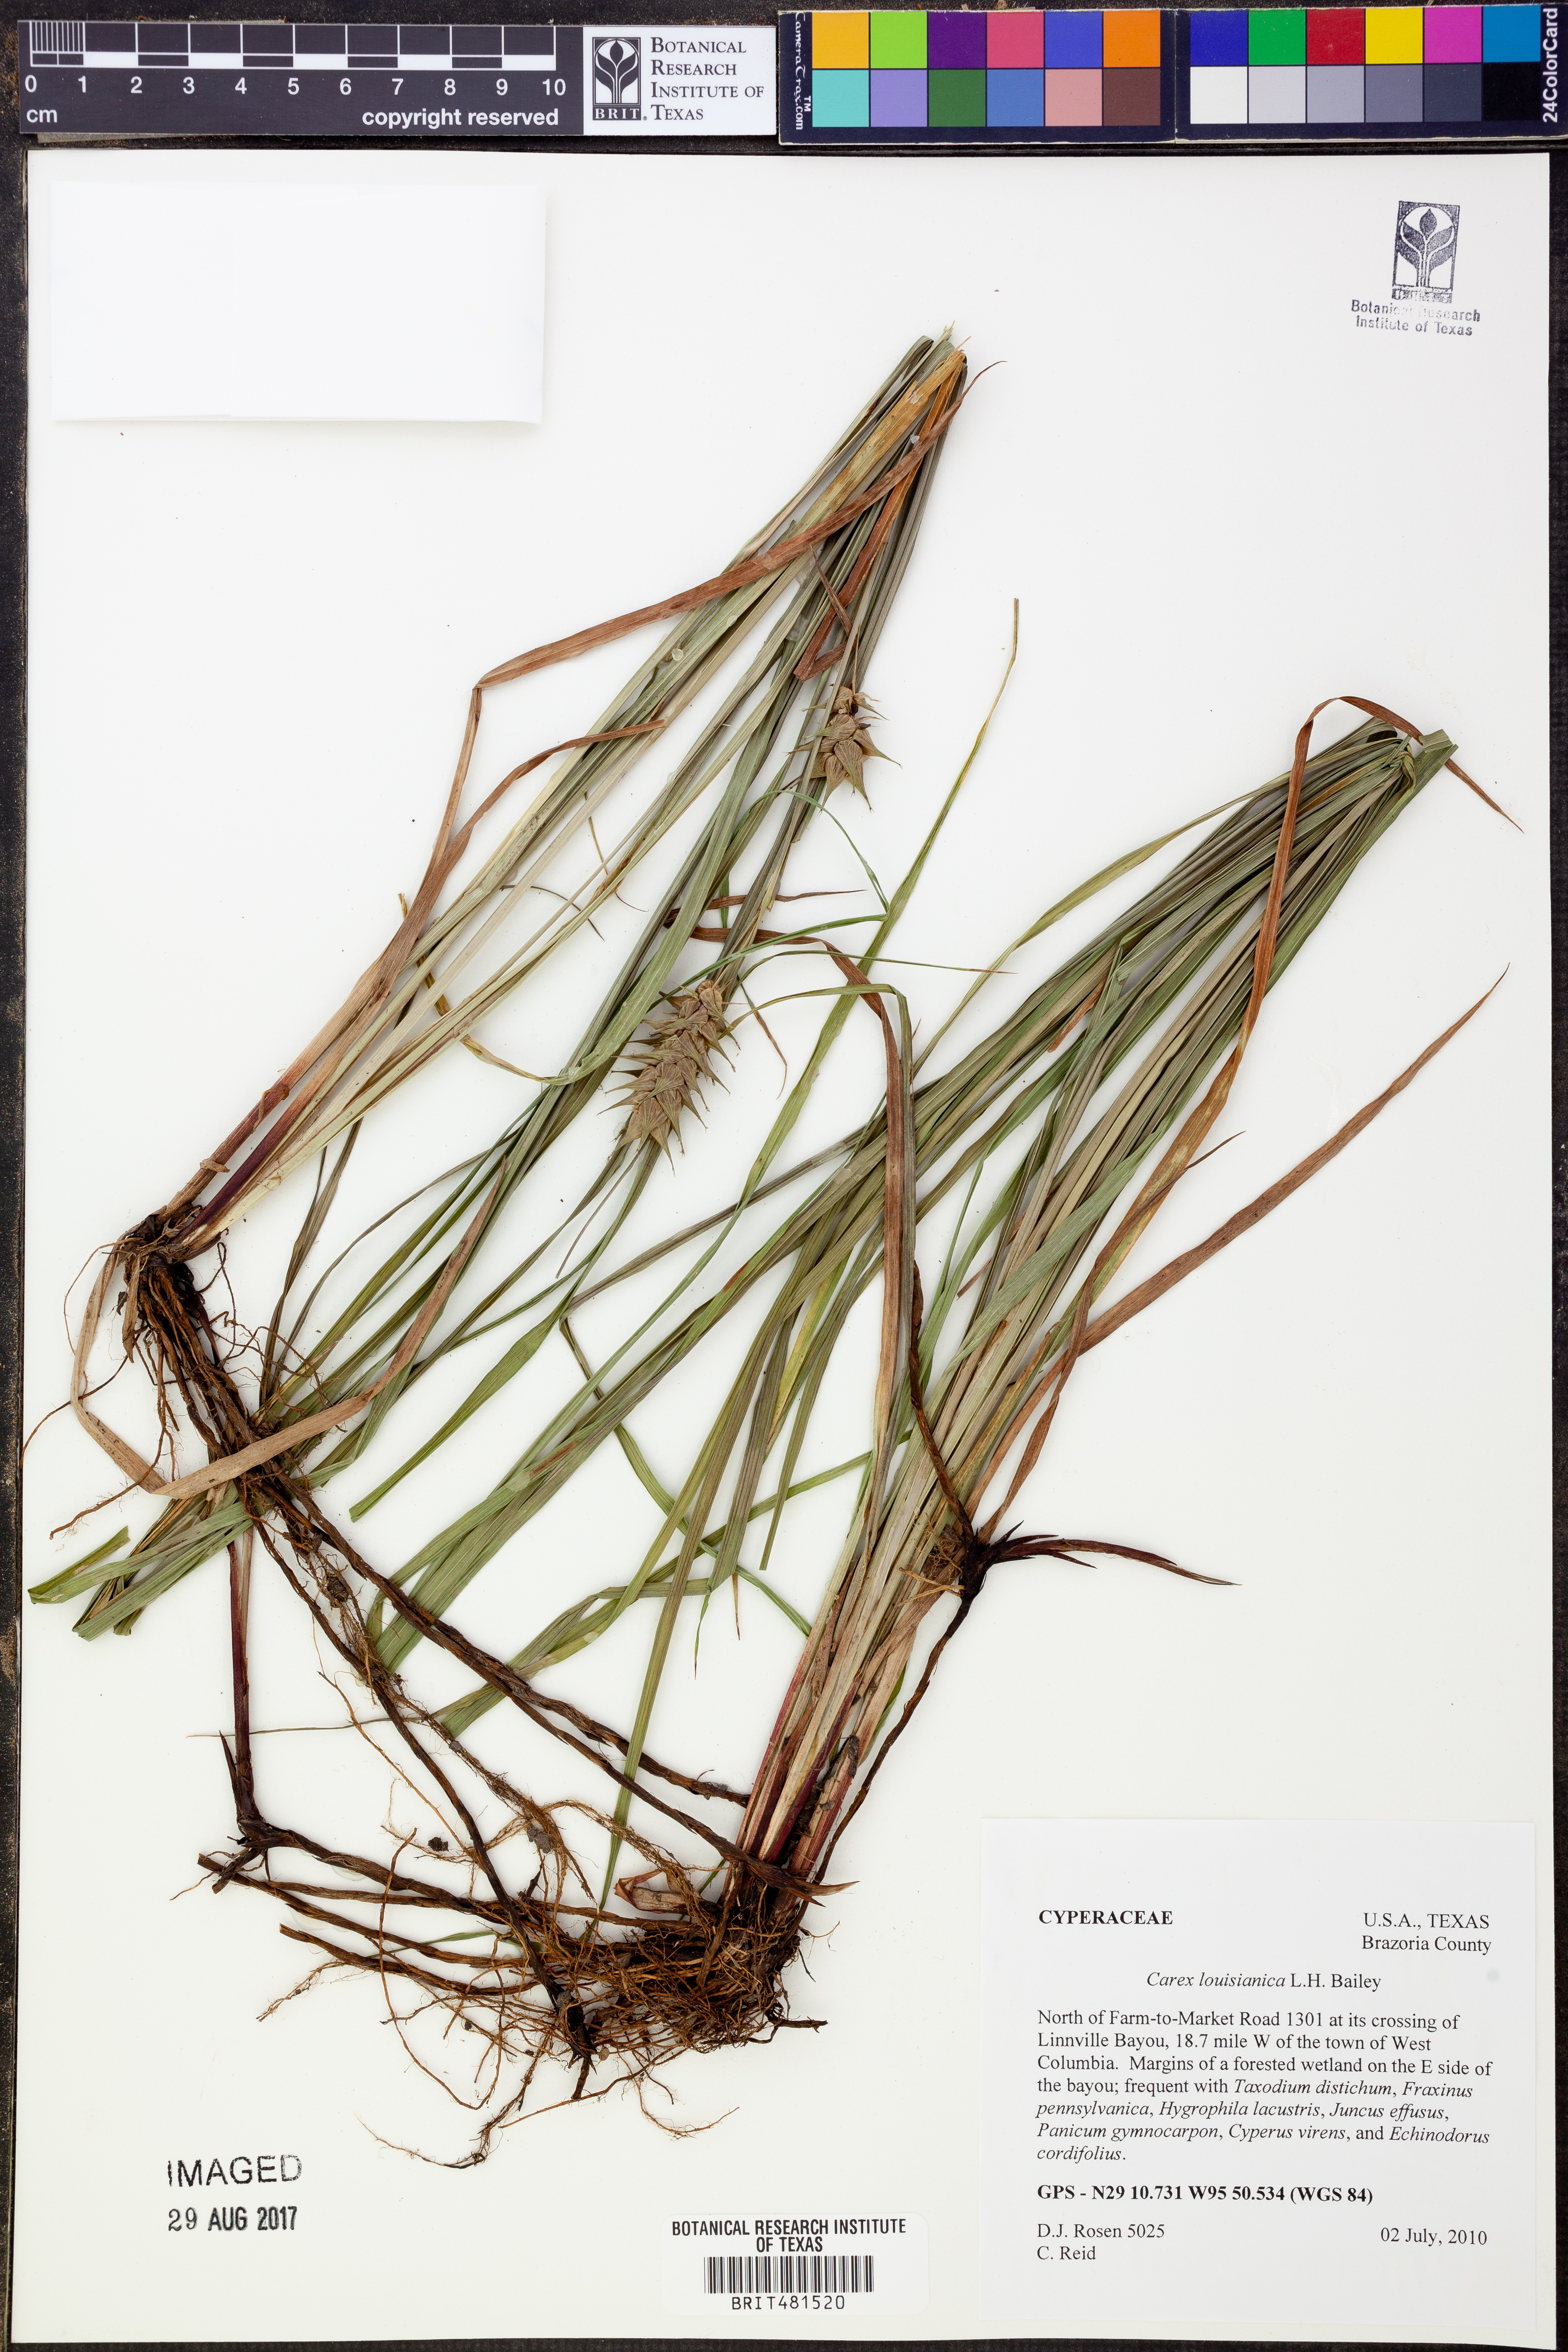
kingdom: Plantae
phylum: Tracheophyta
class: Liliopsida
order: Poales
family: Cyperaceae
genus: Carex
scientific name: Carex louisianica
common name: Louisiana sedge
